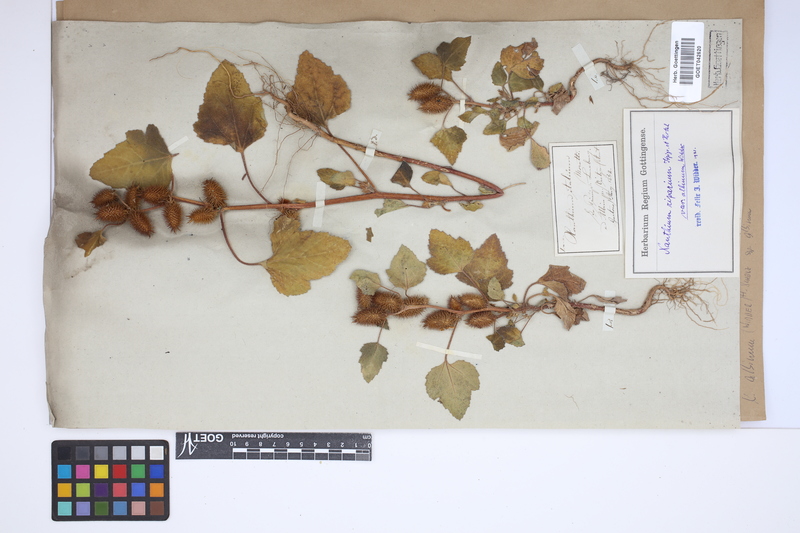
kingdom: Plantae
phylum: Tracheophyta
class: Magnoliopsida
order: Asterales
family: Asteraceae
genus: Xanthium
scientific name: Xanthium orientale
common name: Californian burr
